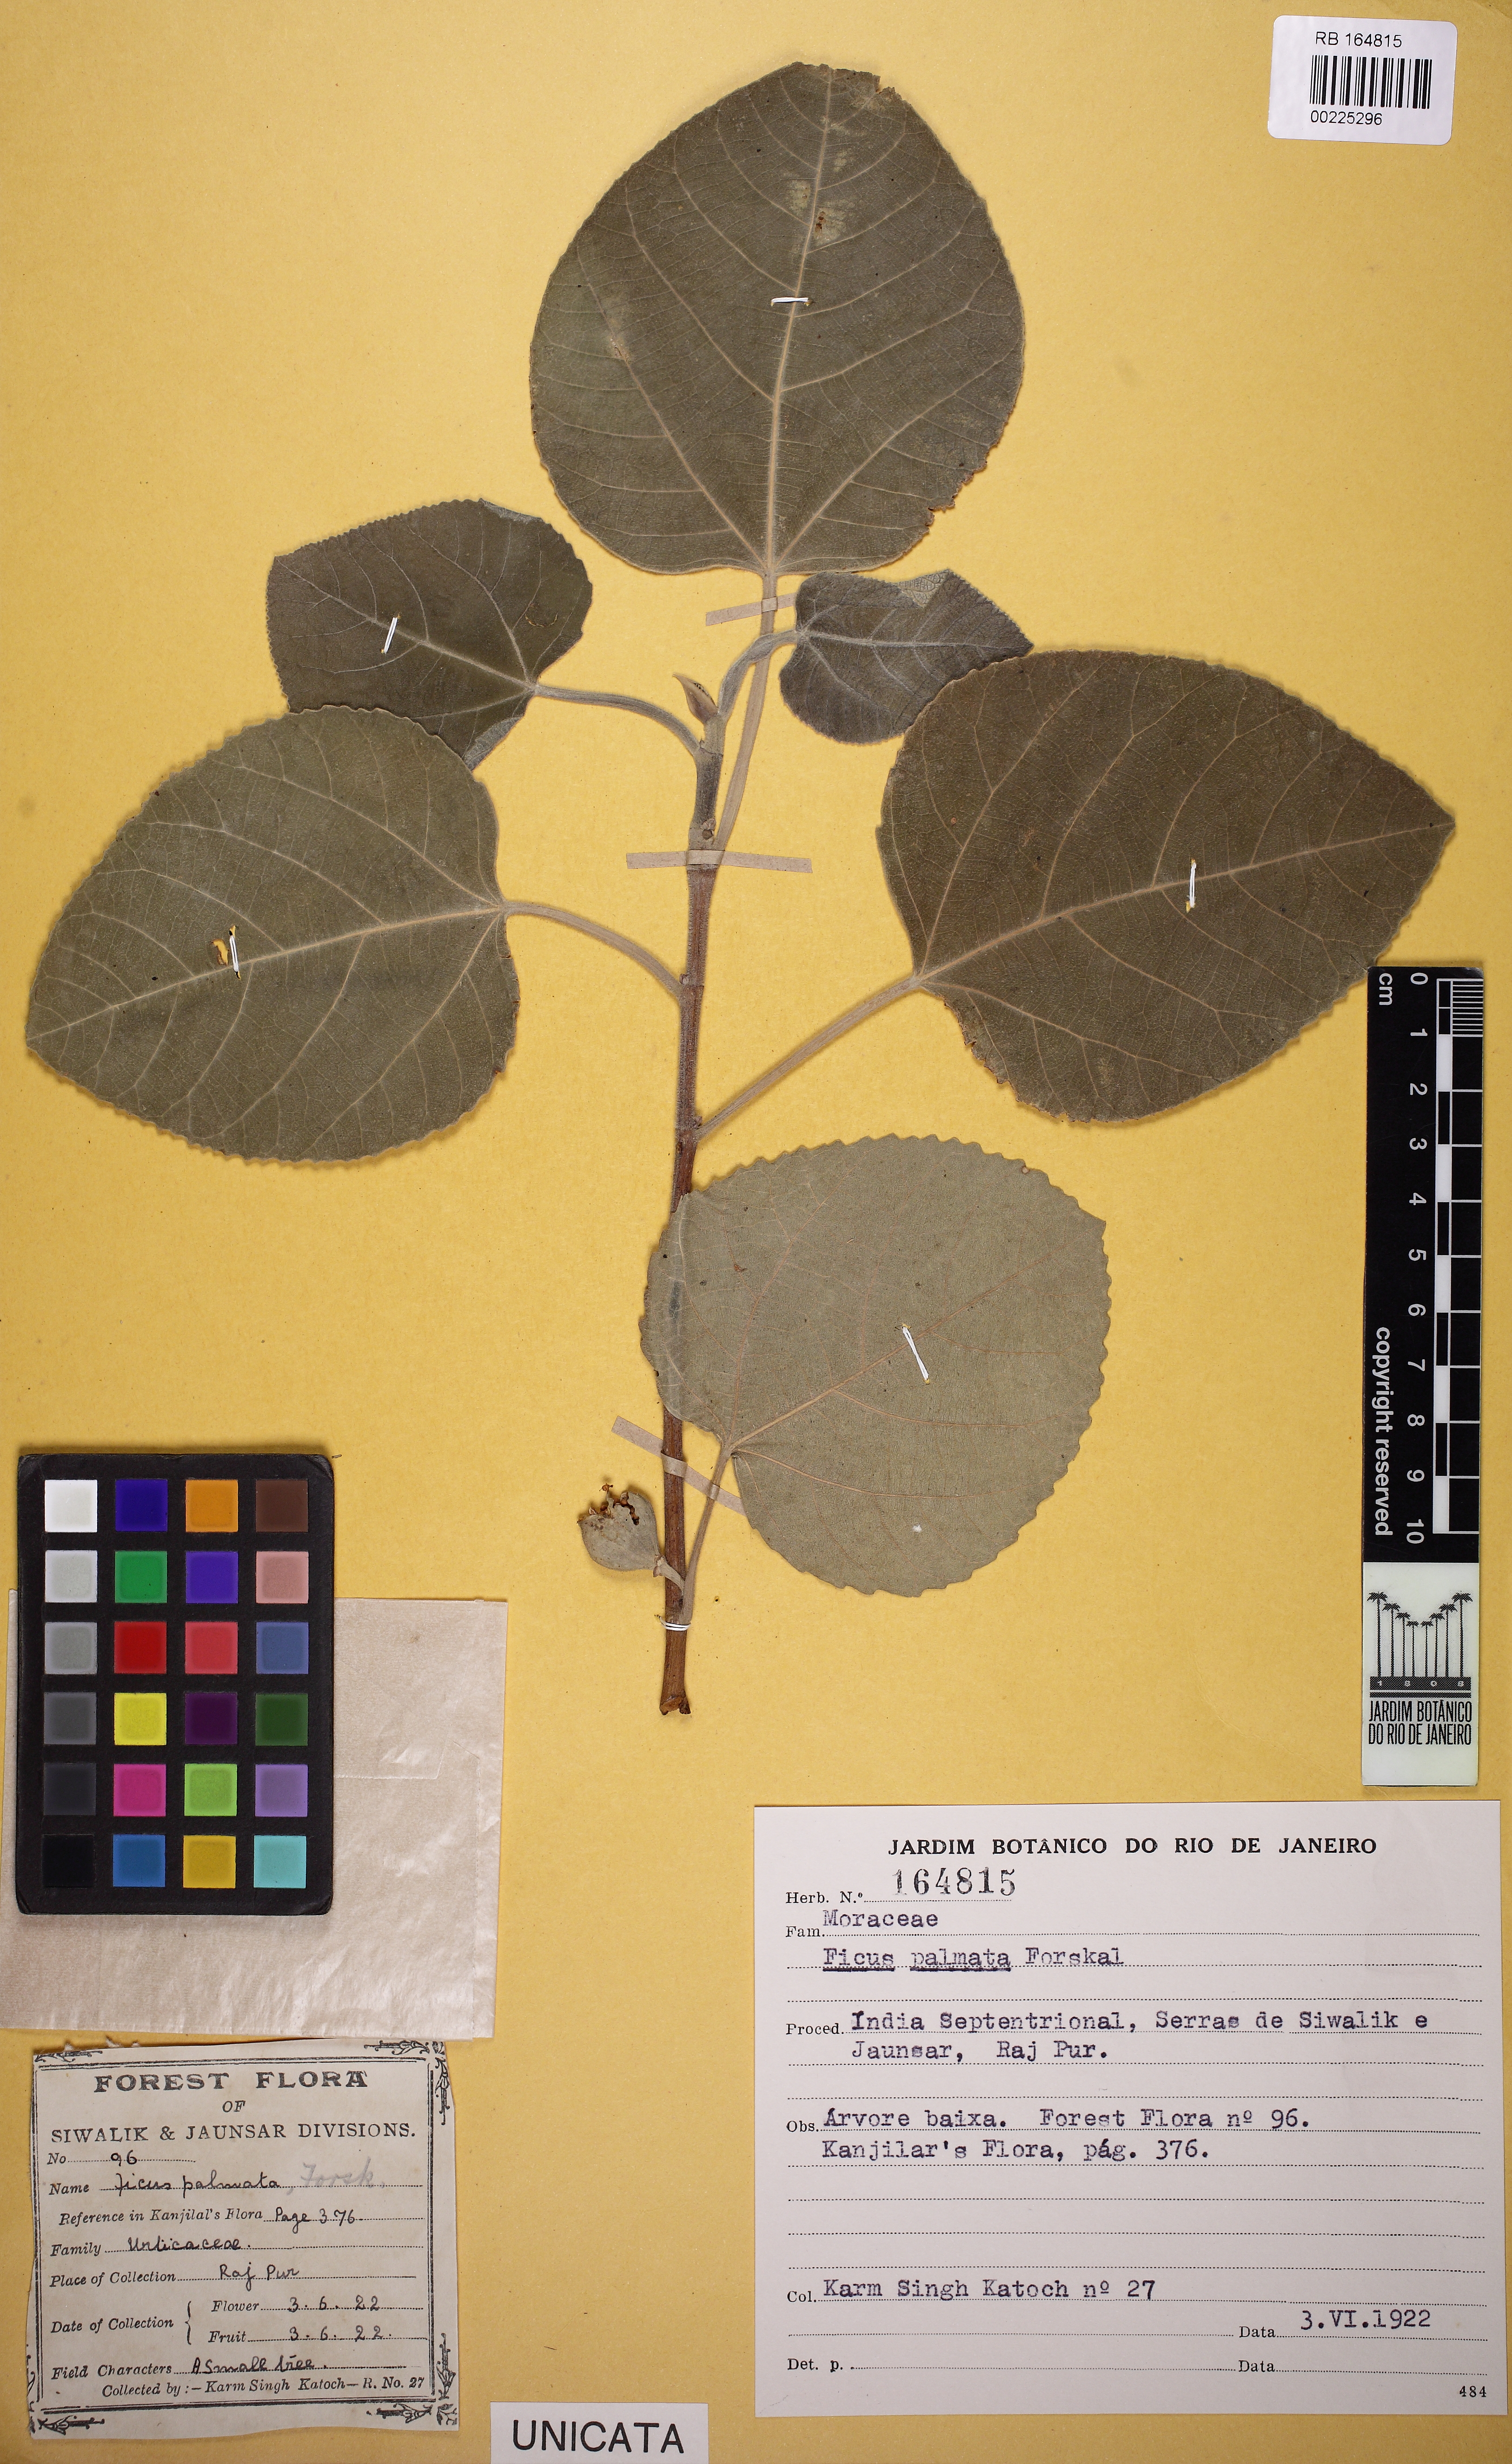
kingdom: Plantae
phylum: Tracheophyta
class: Magnoliopsida
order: Rosales
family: Moraceae
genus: Ficus
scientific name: Ficus palmata
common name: Punjab fig
